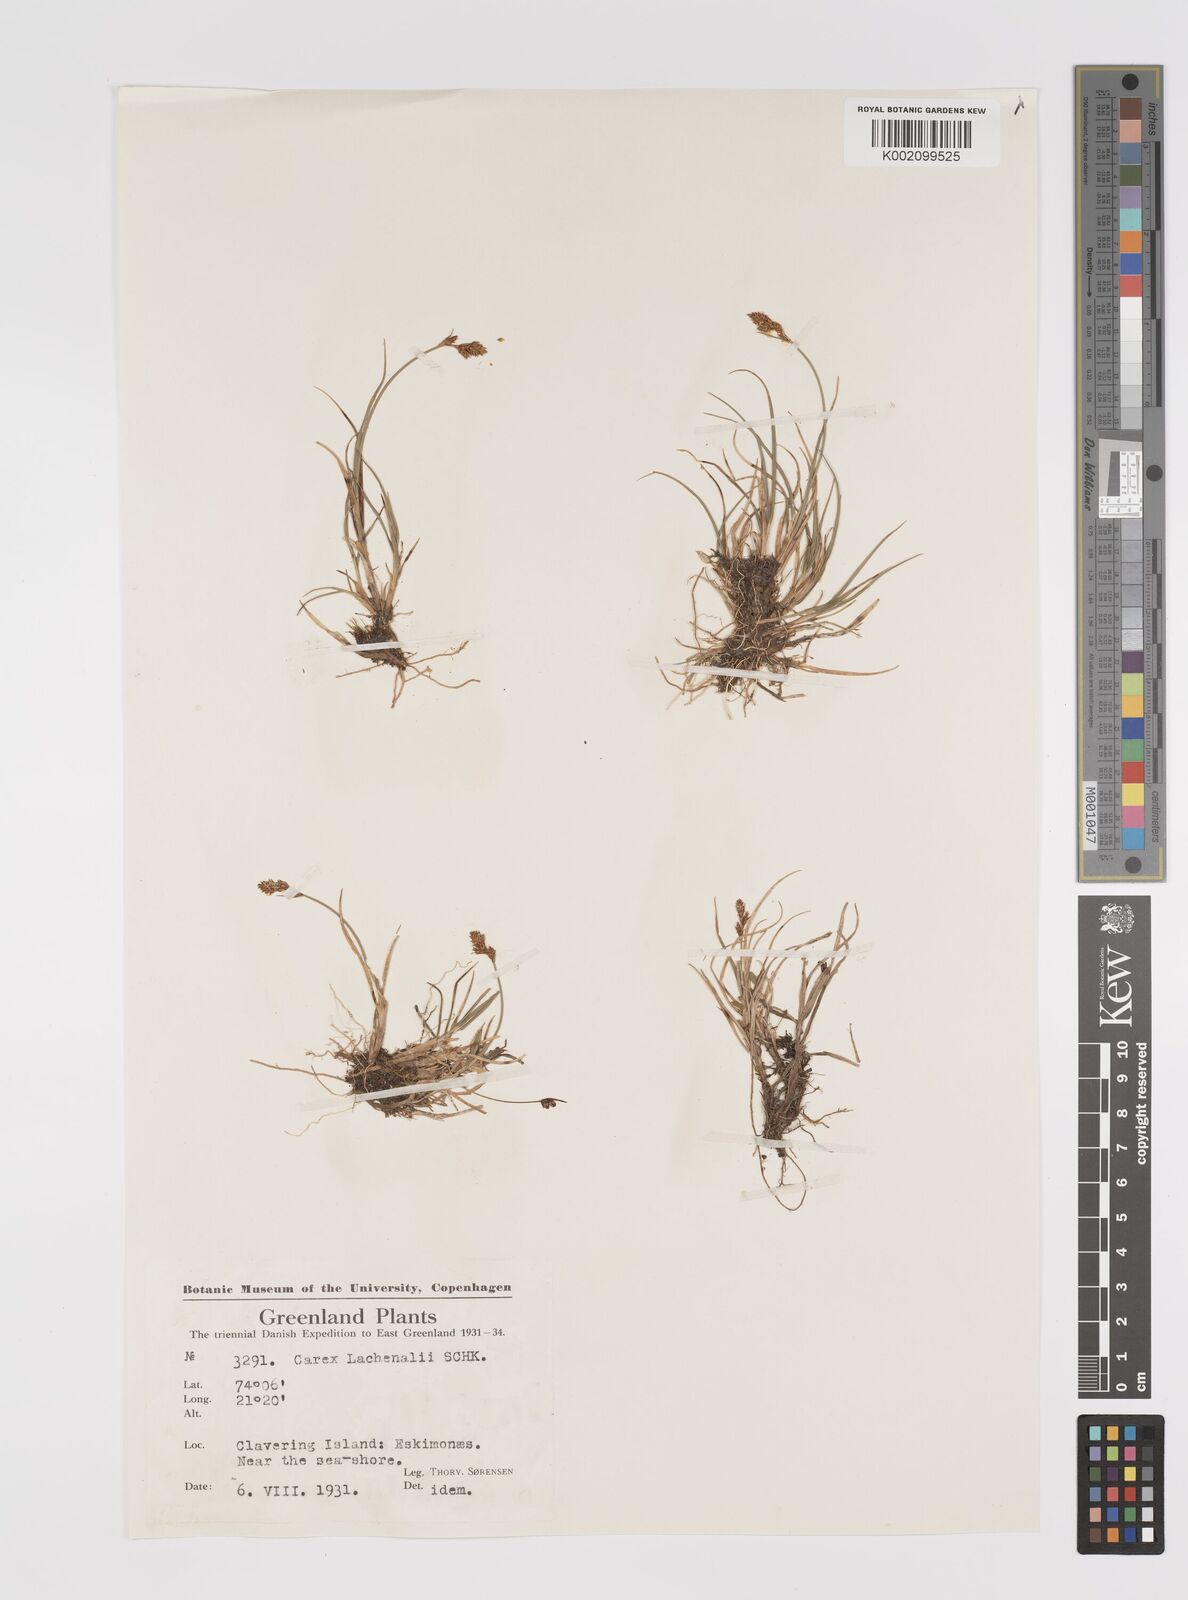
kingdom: Plantae
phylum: Tracheophyta
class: Liliopsida
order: Poales
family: Cyperaceae
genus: Carex
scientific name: Carex lachenalii
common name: Hare's-foot sedge
